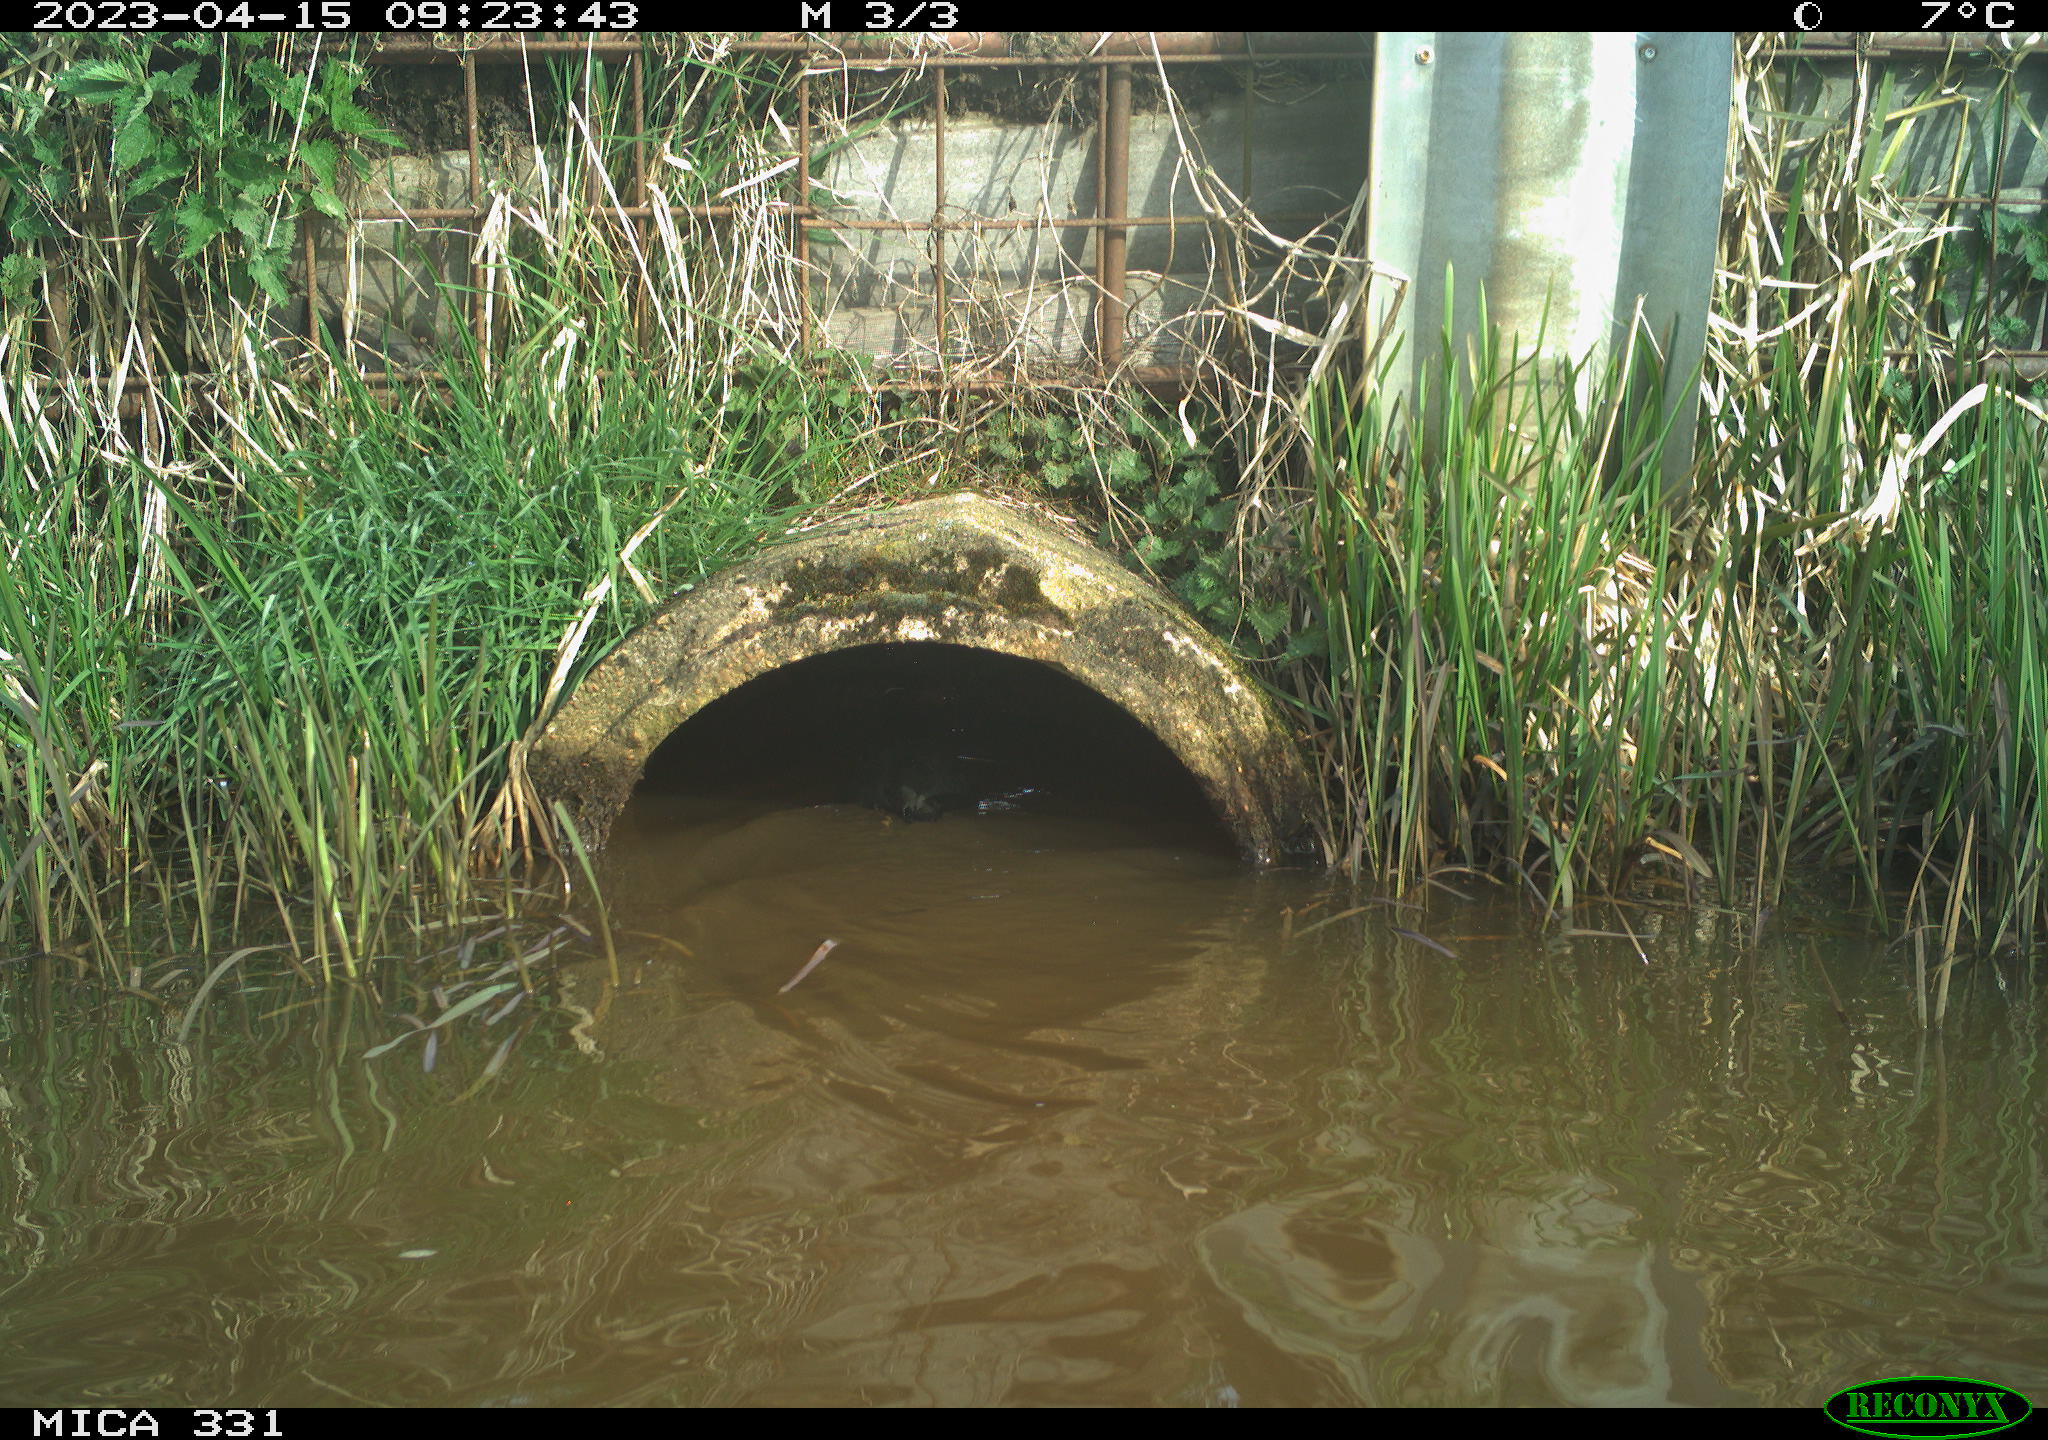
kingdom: Animalia
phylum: Chordata
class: Aves
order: Gruiformes
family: Rallidae
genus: Gallinula
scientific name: Gallinula chloropus
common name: Common moorhen
